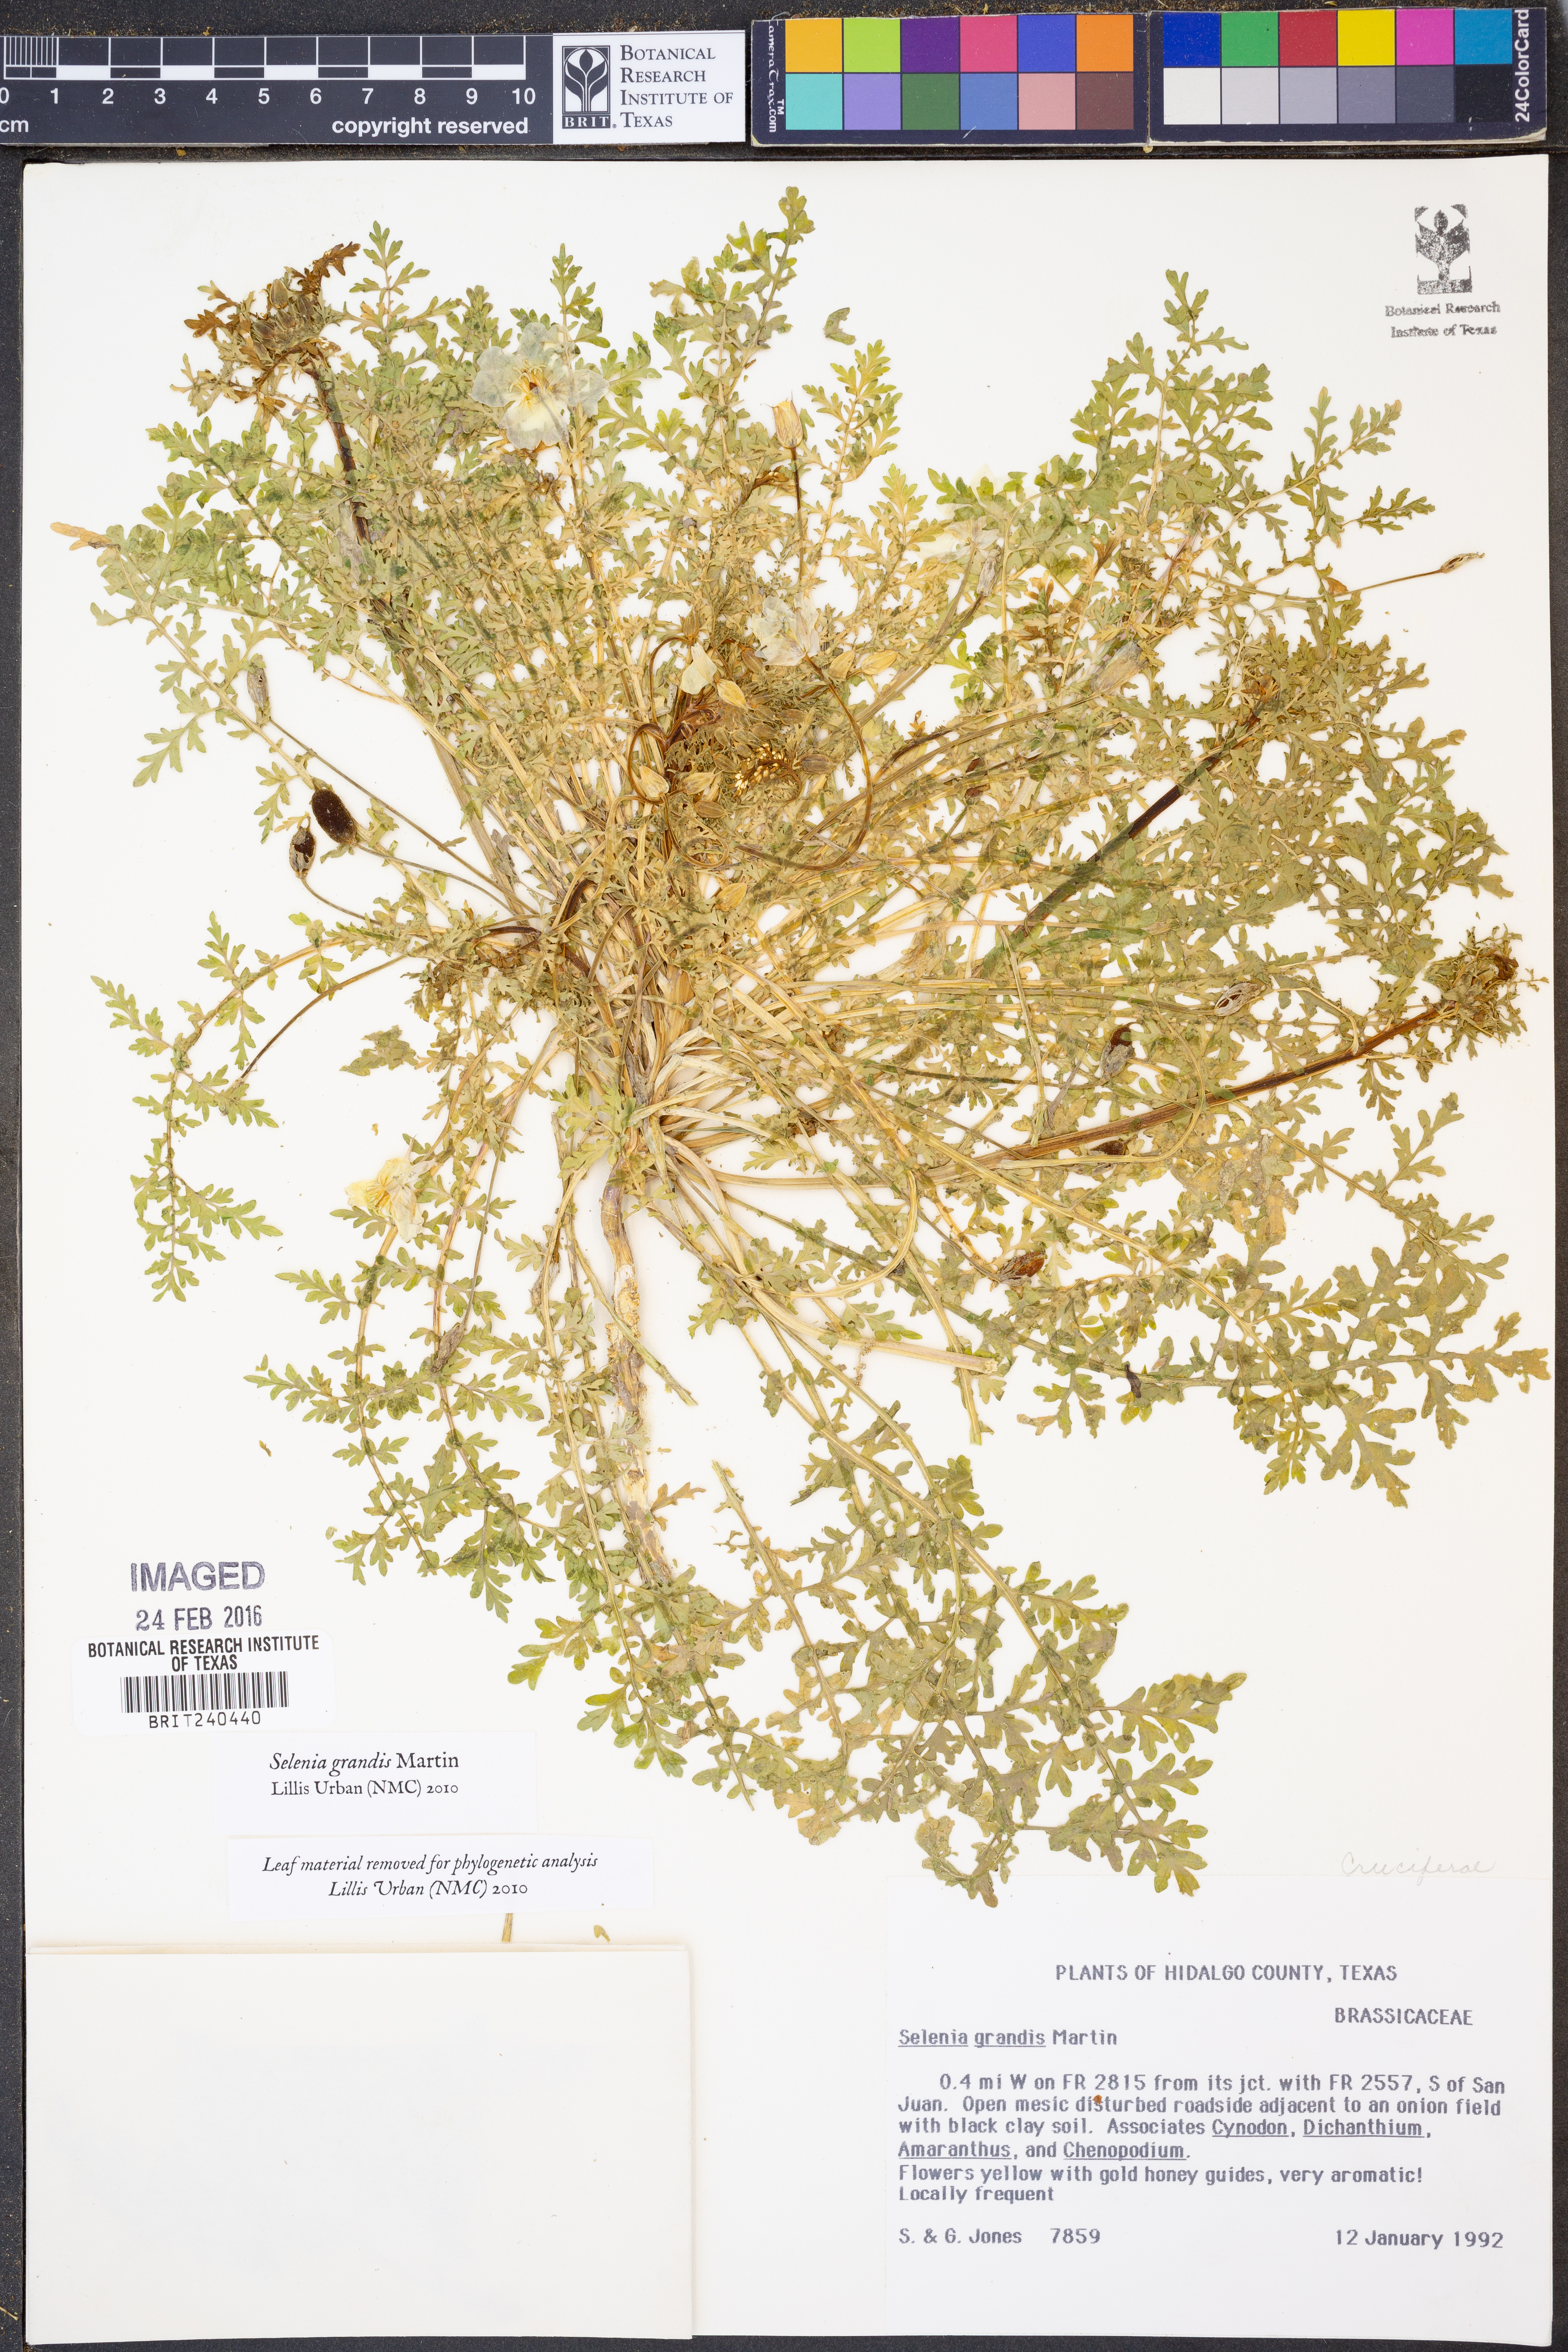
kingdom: Plantae
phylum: Tracheophyta
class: Magnoliopsida
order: Brassicales
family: Brassicaceae
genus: Selenia
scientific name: Selenia grandis
